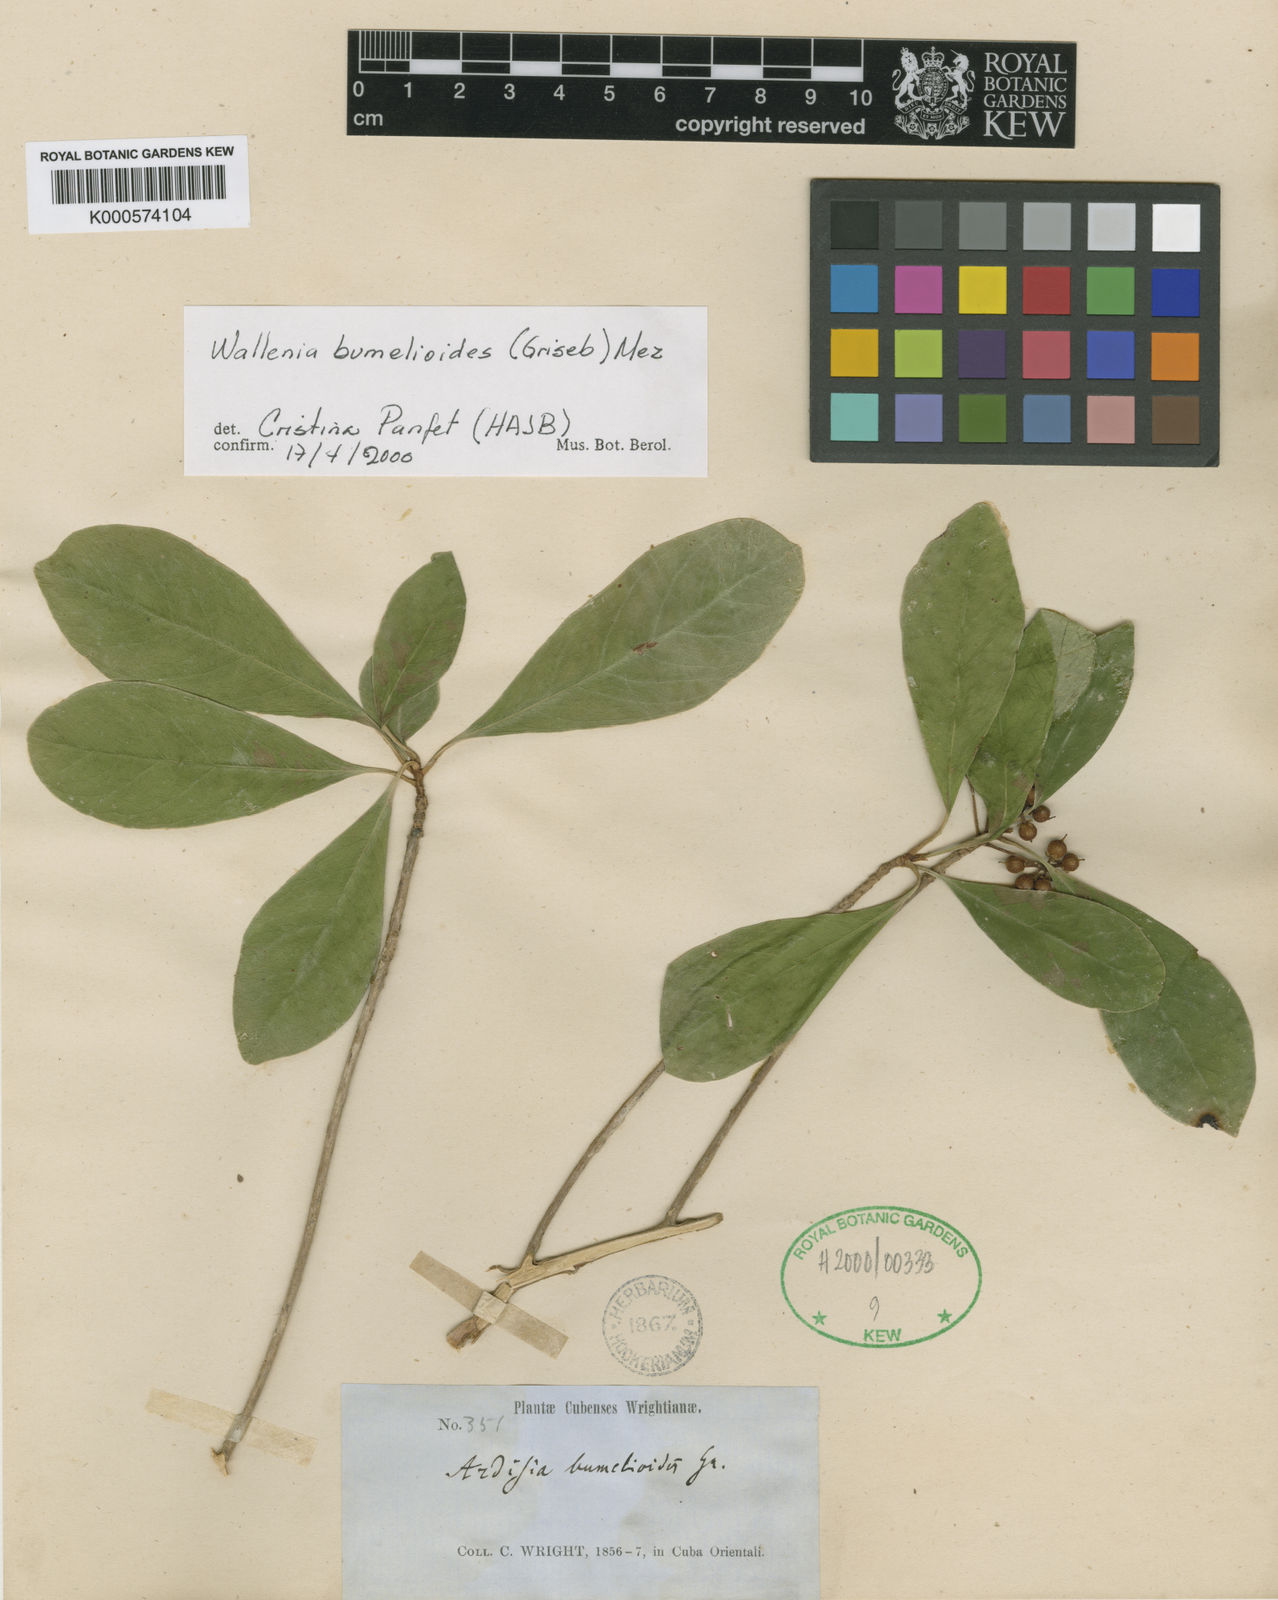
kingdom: Plantae
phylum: Tracheophyta
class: Magnoliopsida
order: Ericales
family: Primulaceae
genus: Wallenia
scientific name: Wallenia bumelioides
